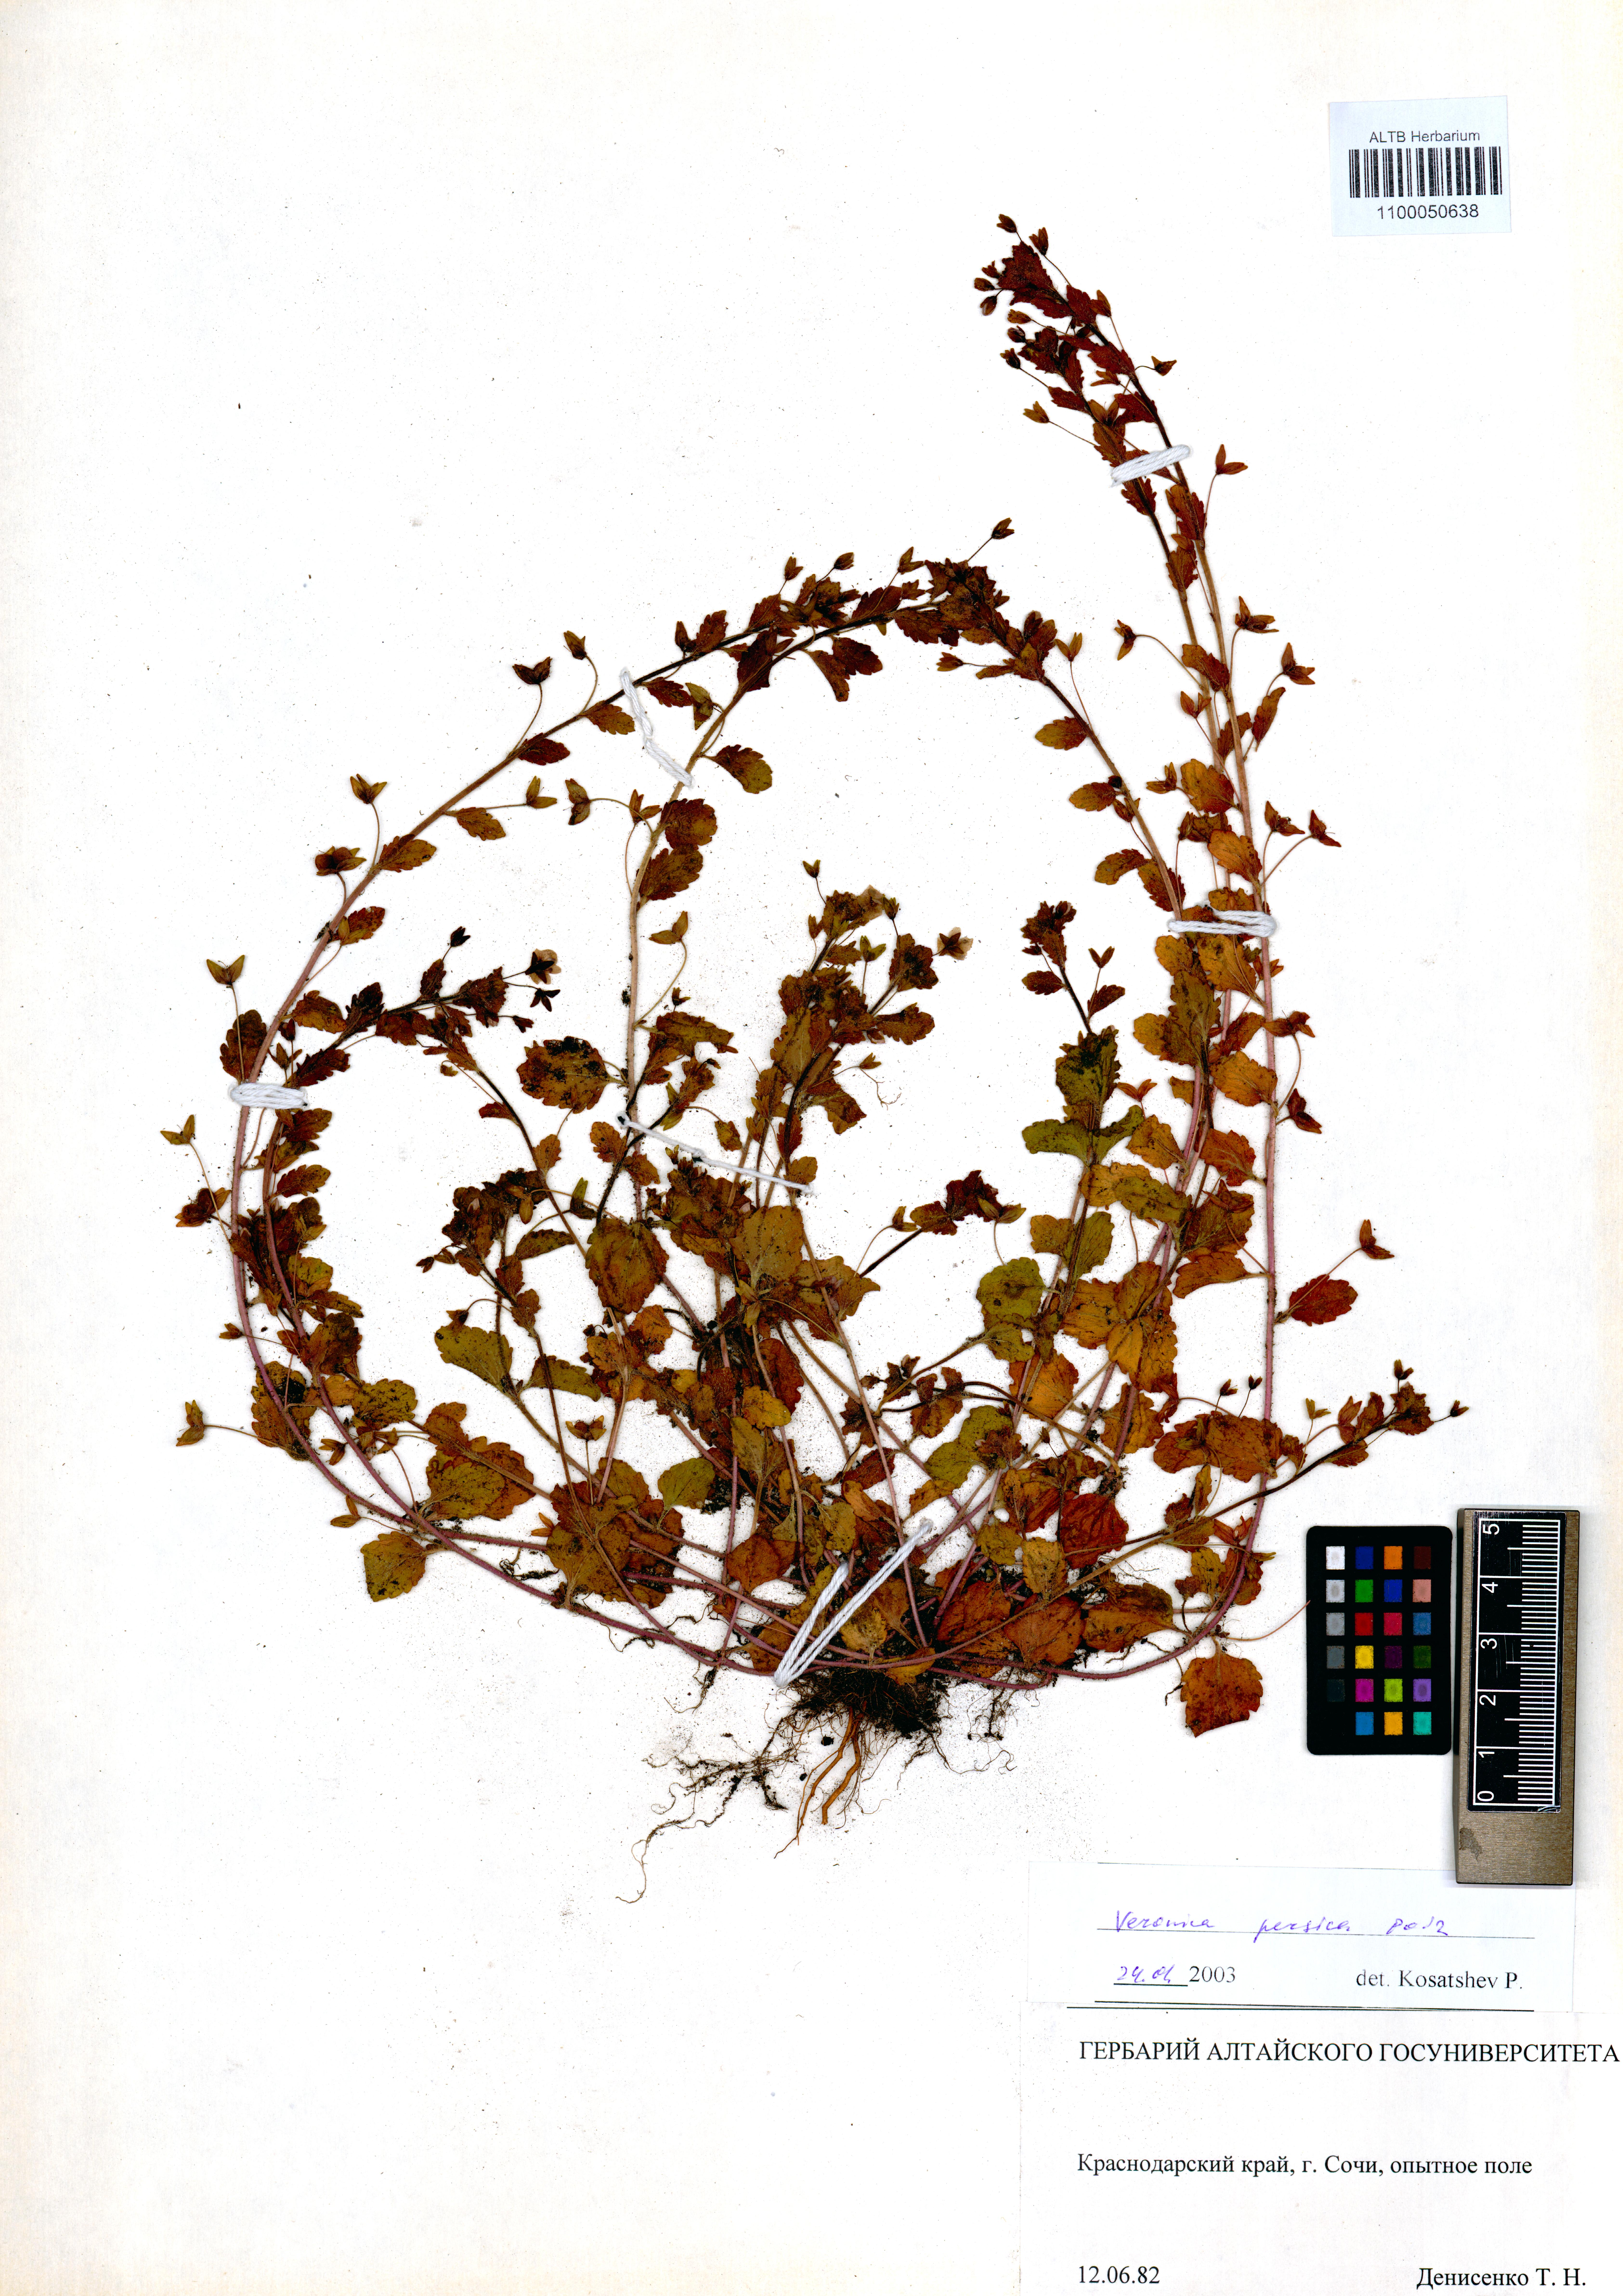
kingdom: Plantae
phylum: Tracheophyta
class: Magnoliopsida
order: Lamiales
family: Plantaginaceae
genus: Veronica
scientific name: Veronica persica
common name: Common field-speedwell
